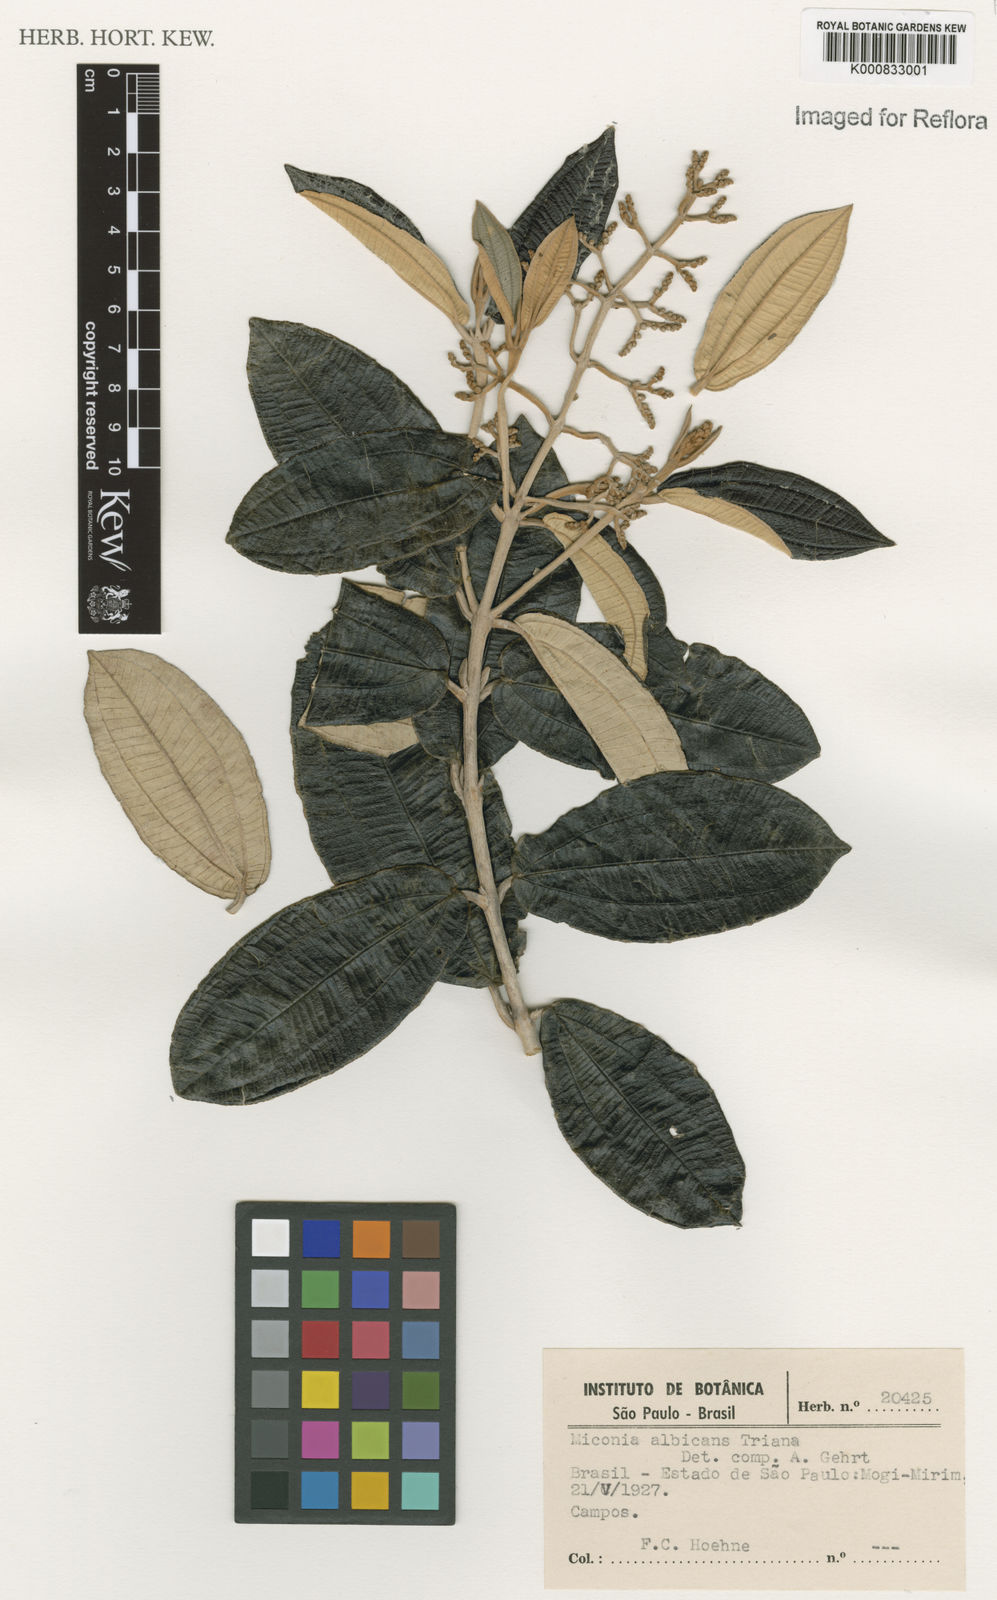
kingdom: Plantae
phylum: Tracheophyta
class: Magnoliopsida
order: Myrtales
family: Melastomataceae
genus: Miconia
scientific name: Miconia albicans
